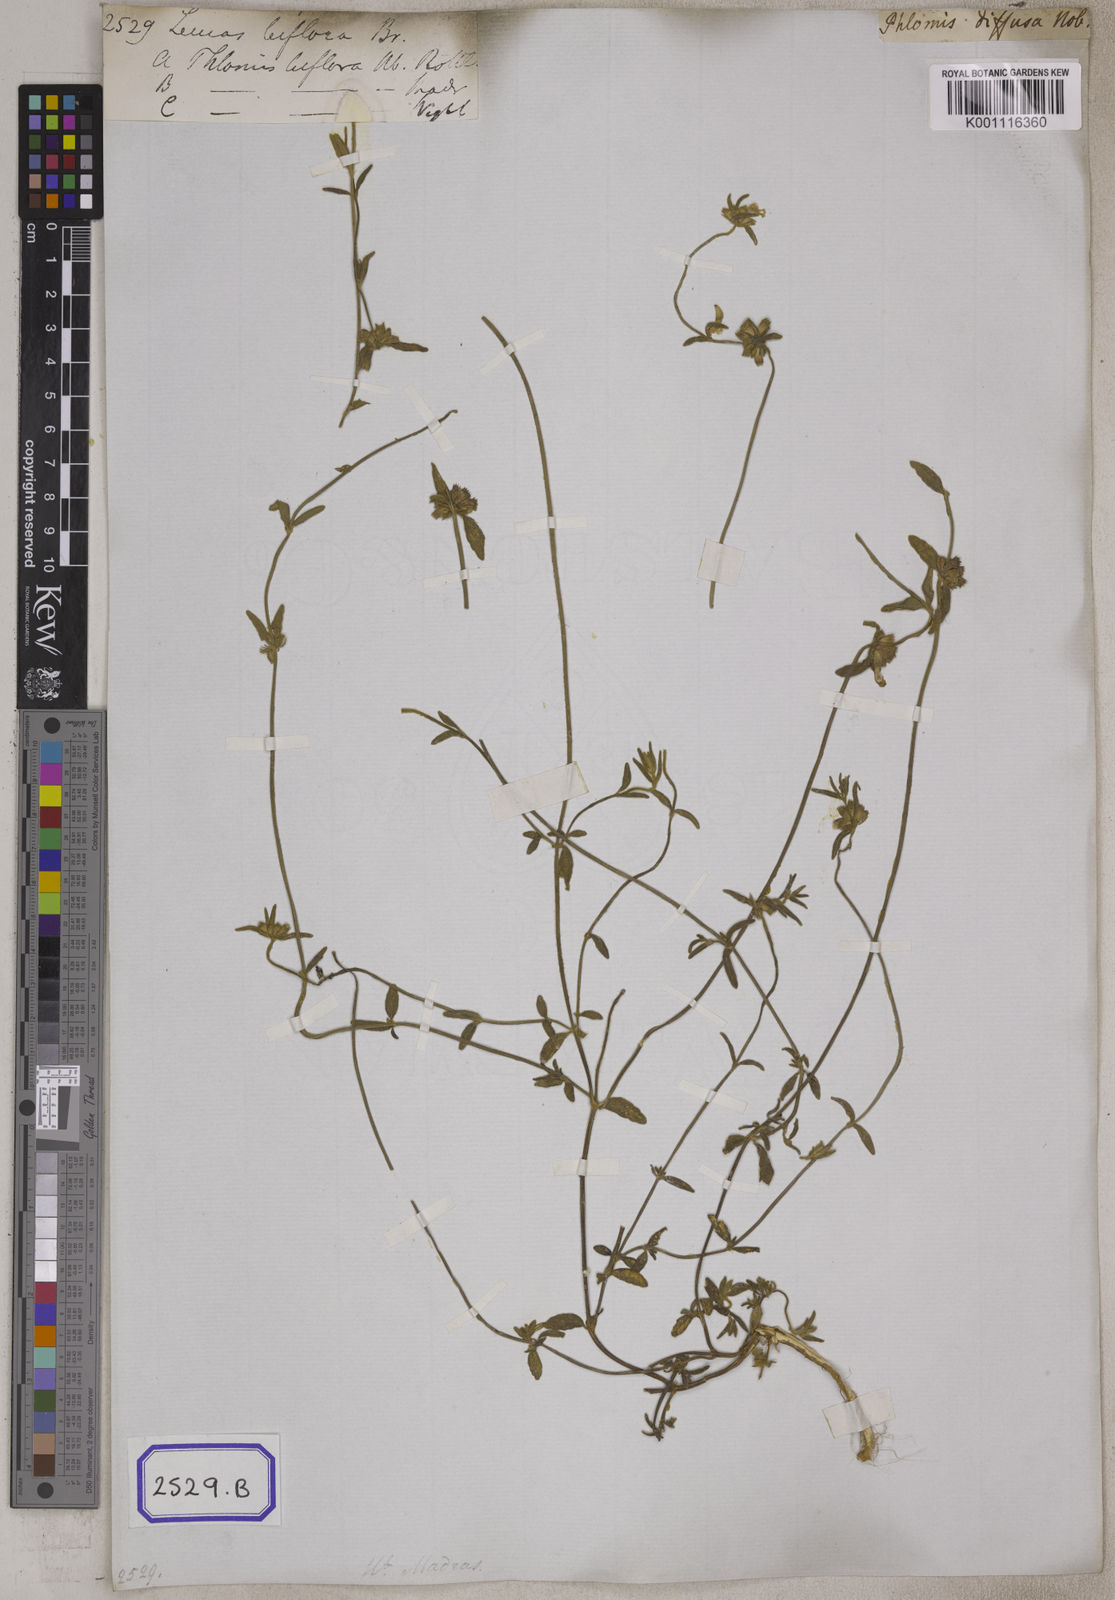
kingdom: Plantae
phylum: Tracheophyta
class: Magnoliopsida
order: Lamiales
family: Lamiaceae
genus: Leucas
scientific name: Leucas
